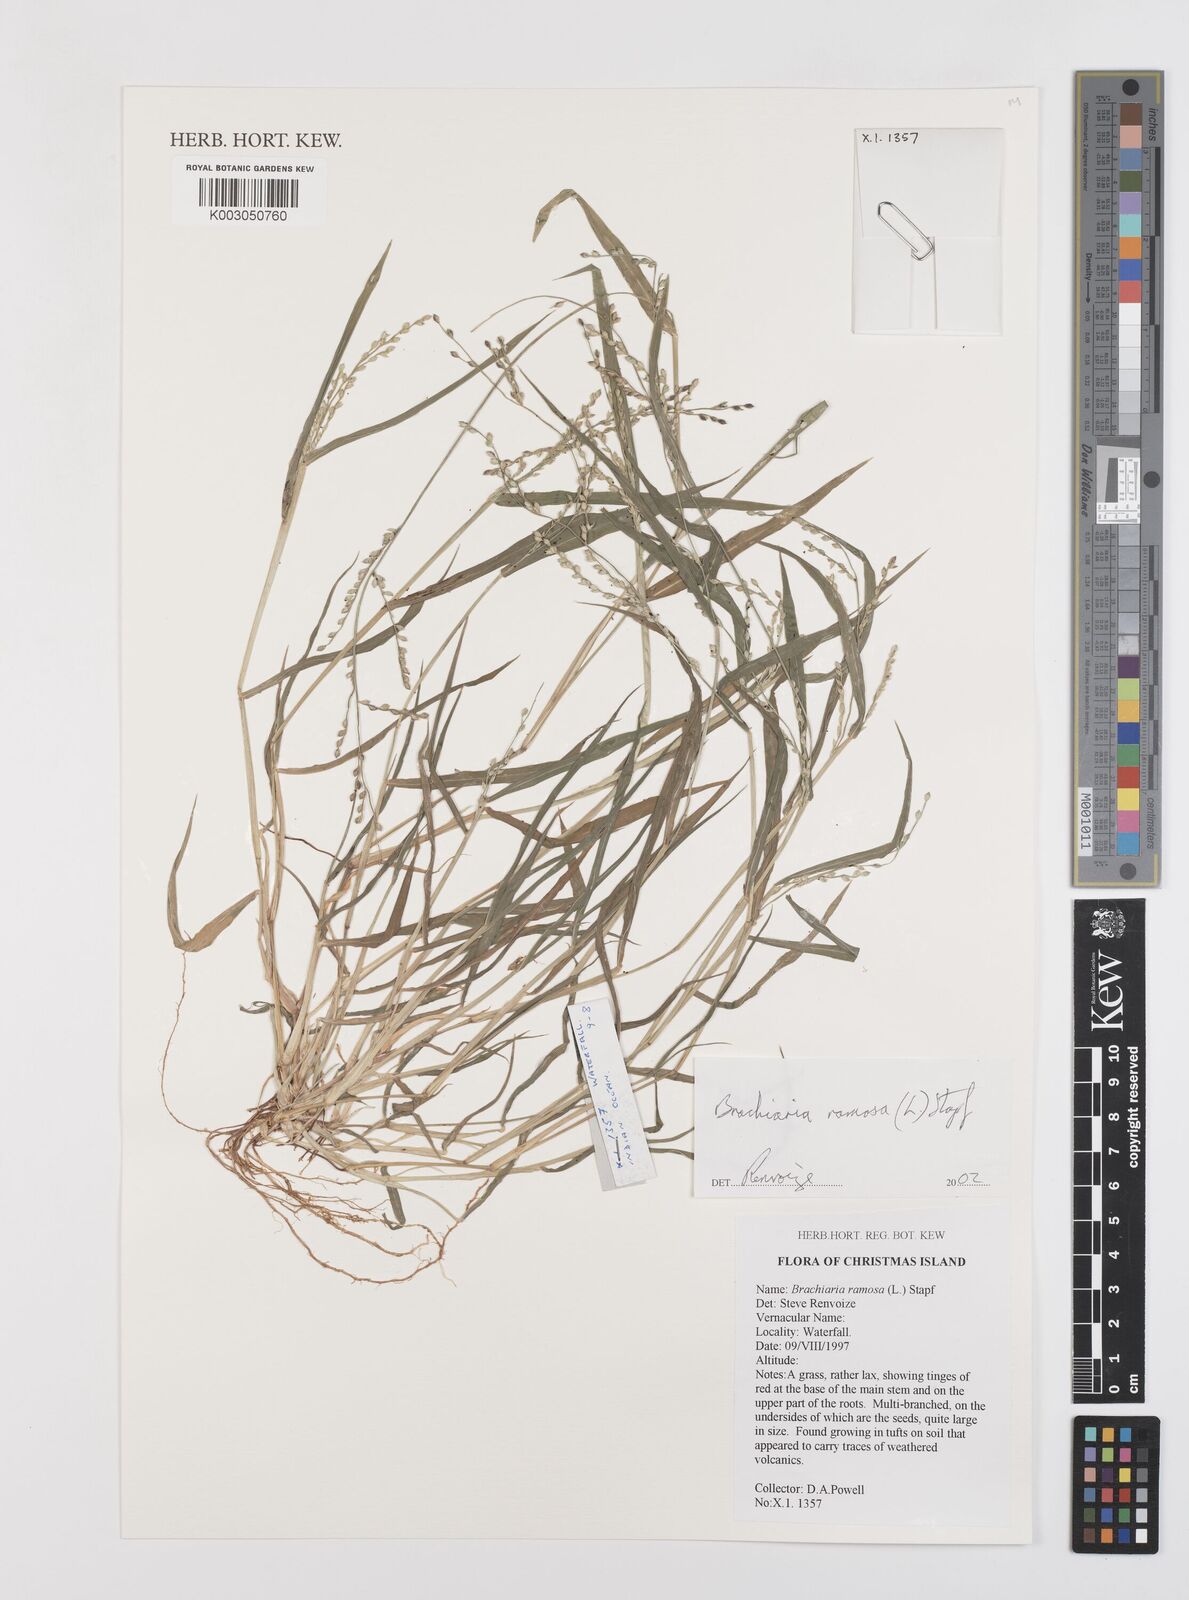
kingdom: Plantae
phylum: Tracheophyta
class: Liliopsida
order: Poales
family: Poaceae
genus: Urochloa
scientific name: Urochloa ramosa
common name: Browntop millet
